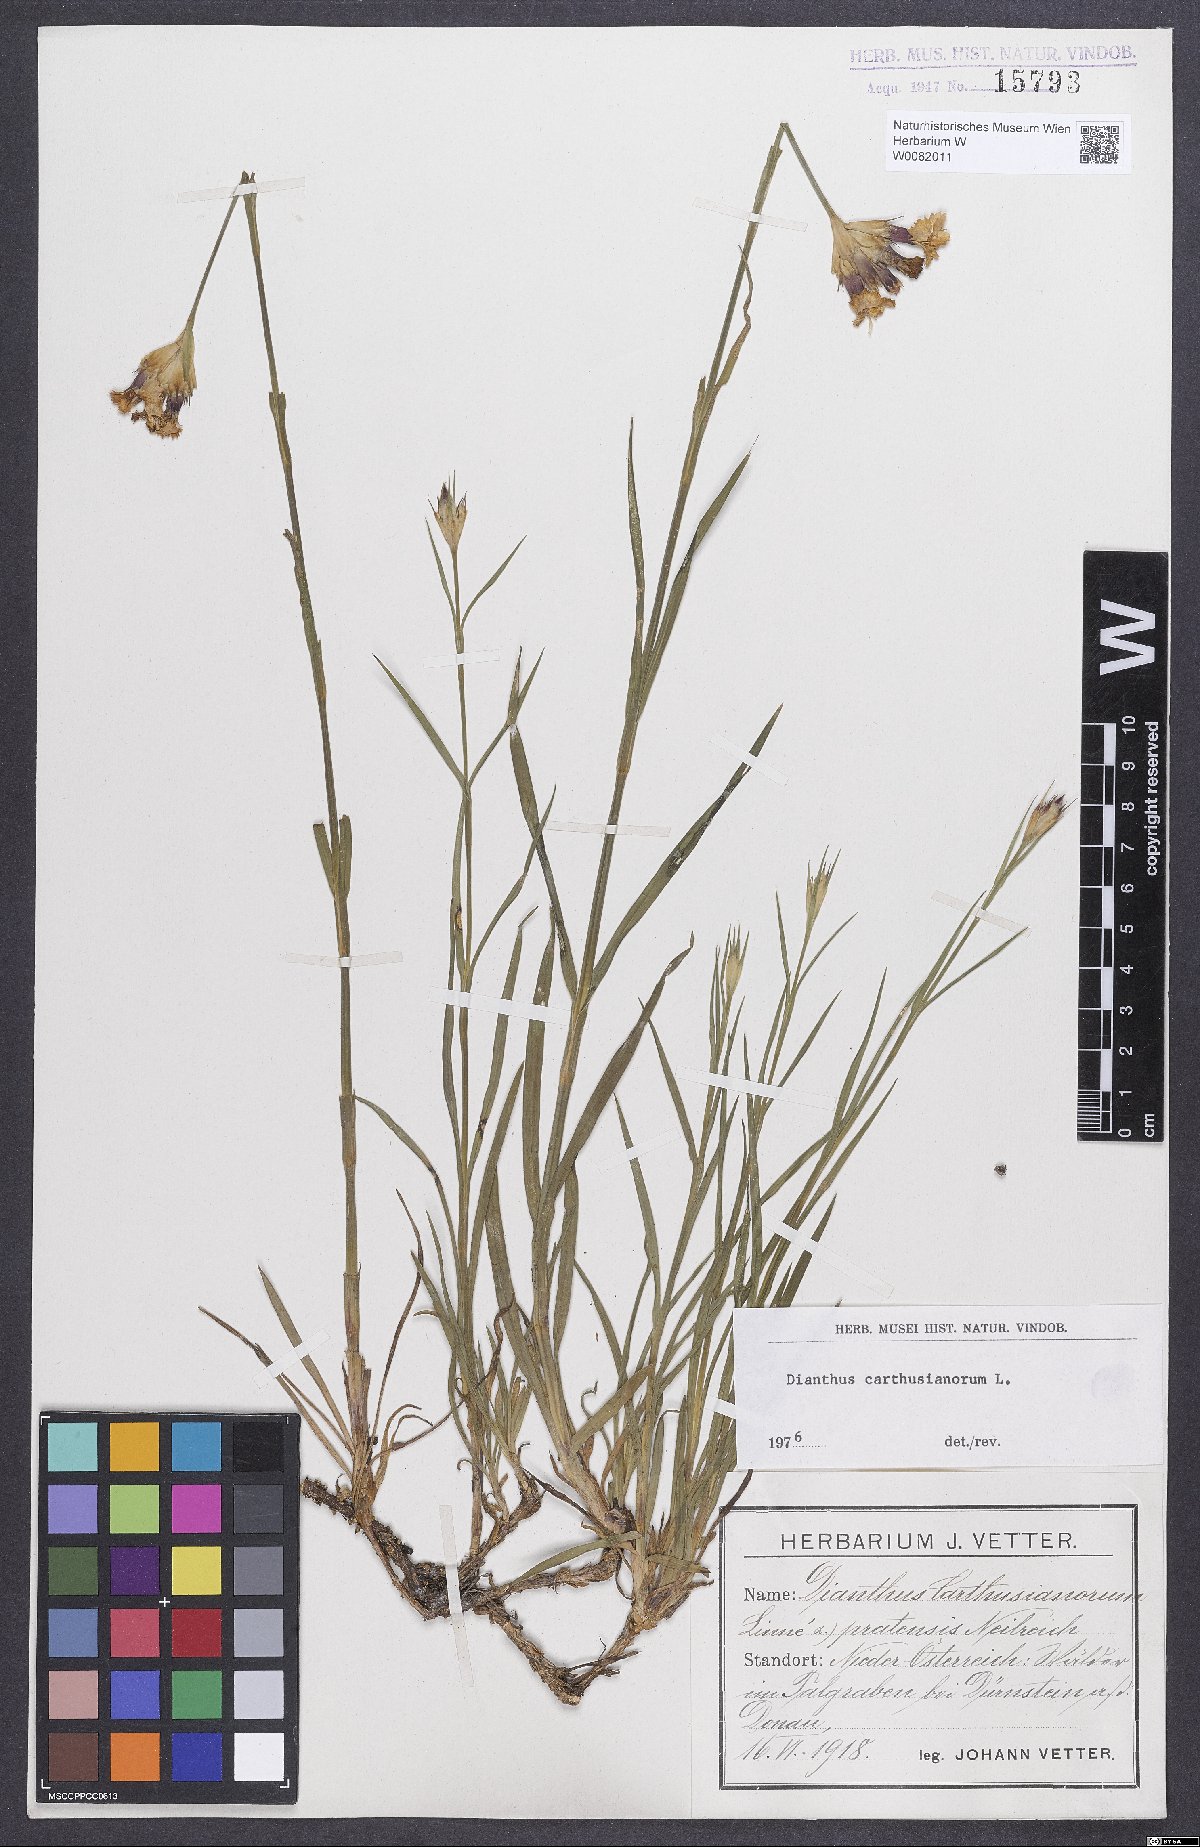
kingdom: Plantae
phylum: Tracheophyta
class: Magnoliopsida
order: Caryophyllales
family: Caryophyllaceae
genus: Dianthus
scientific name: Dianthus carthusianorum
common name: Carthusian pink
